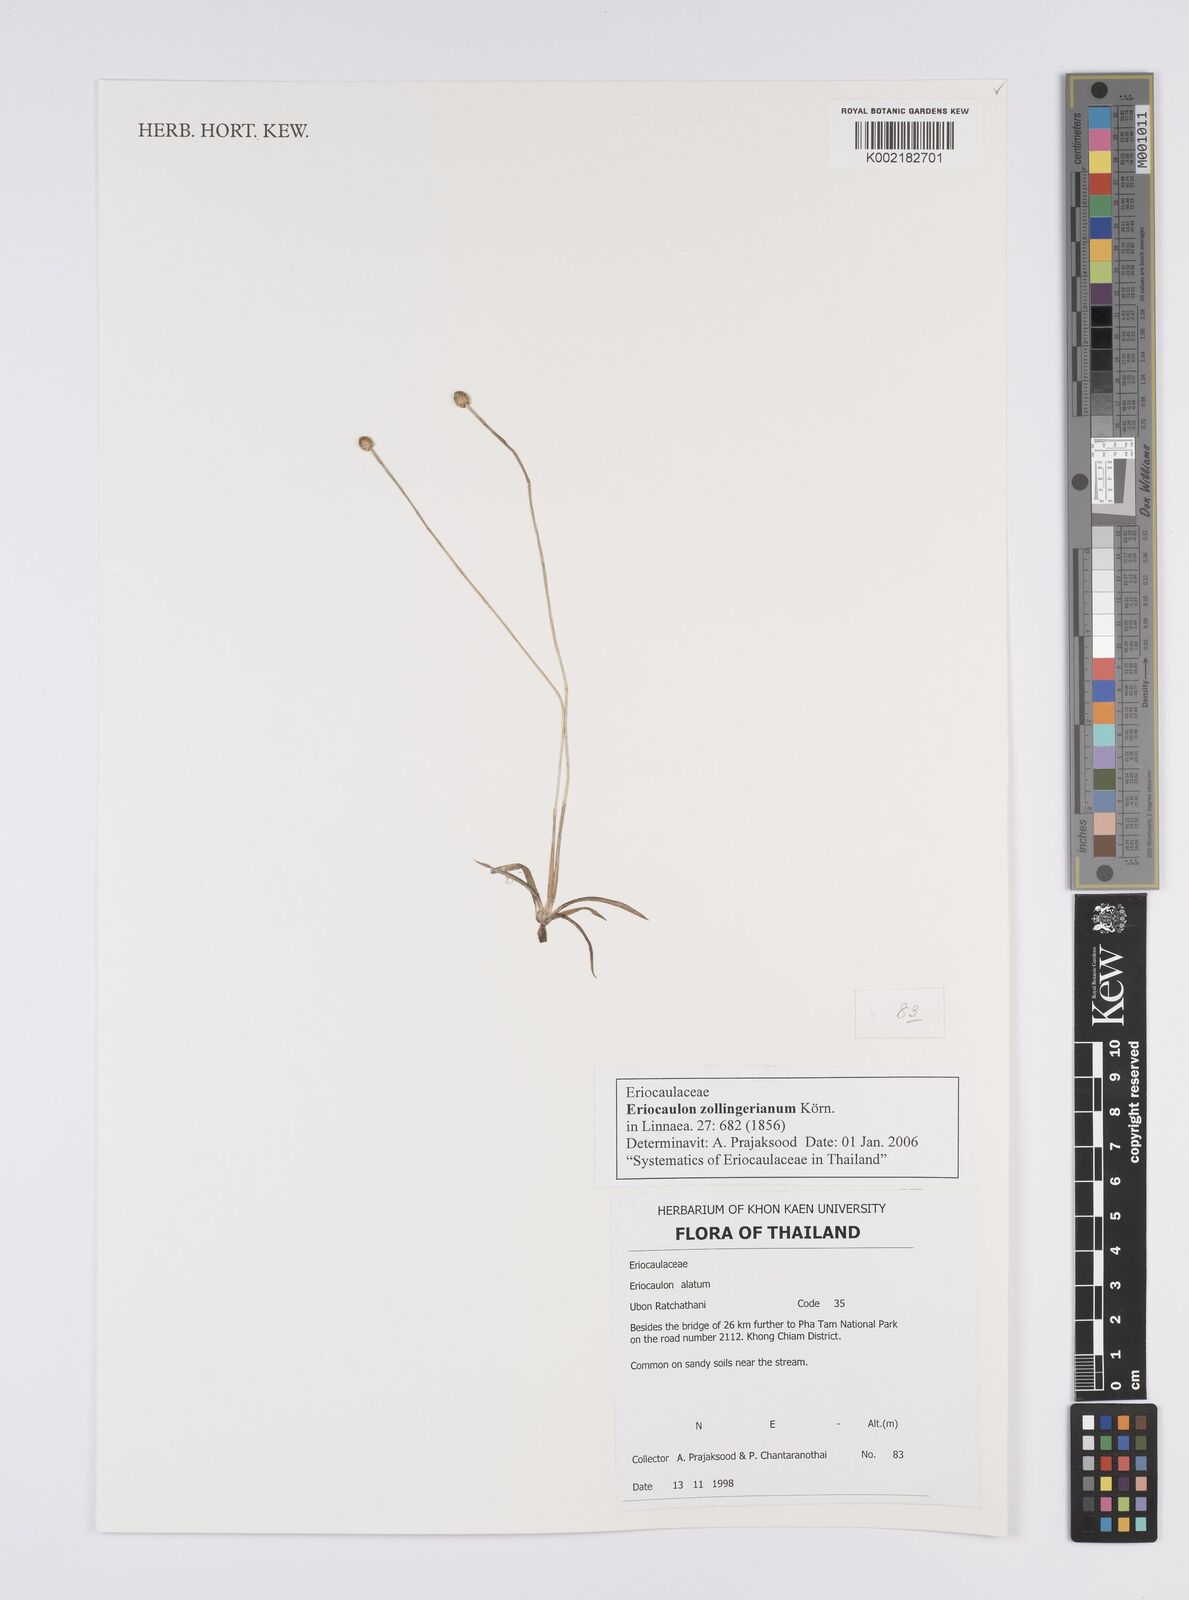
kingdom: Plantae
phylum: Tracheophyta
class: Liliopsida
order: Poales
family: Eriocaulaceae
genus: Eriocaulon
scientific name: Eriocaulon zollingerianum
